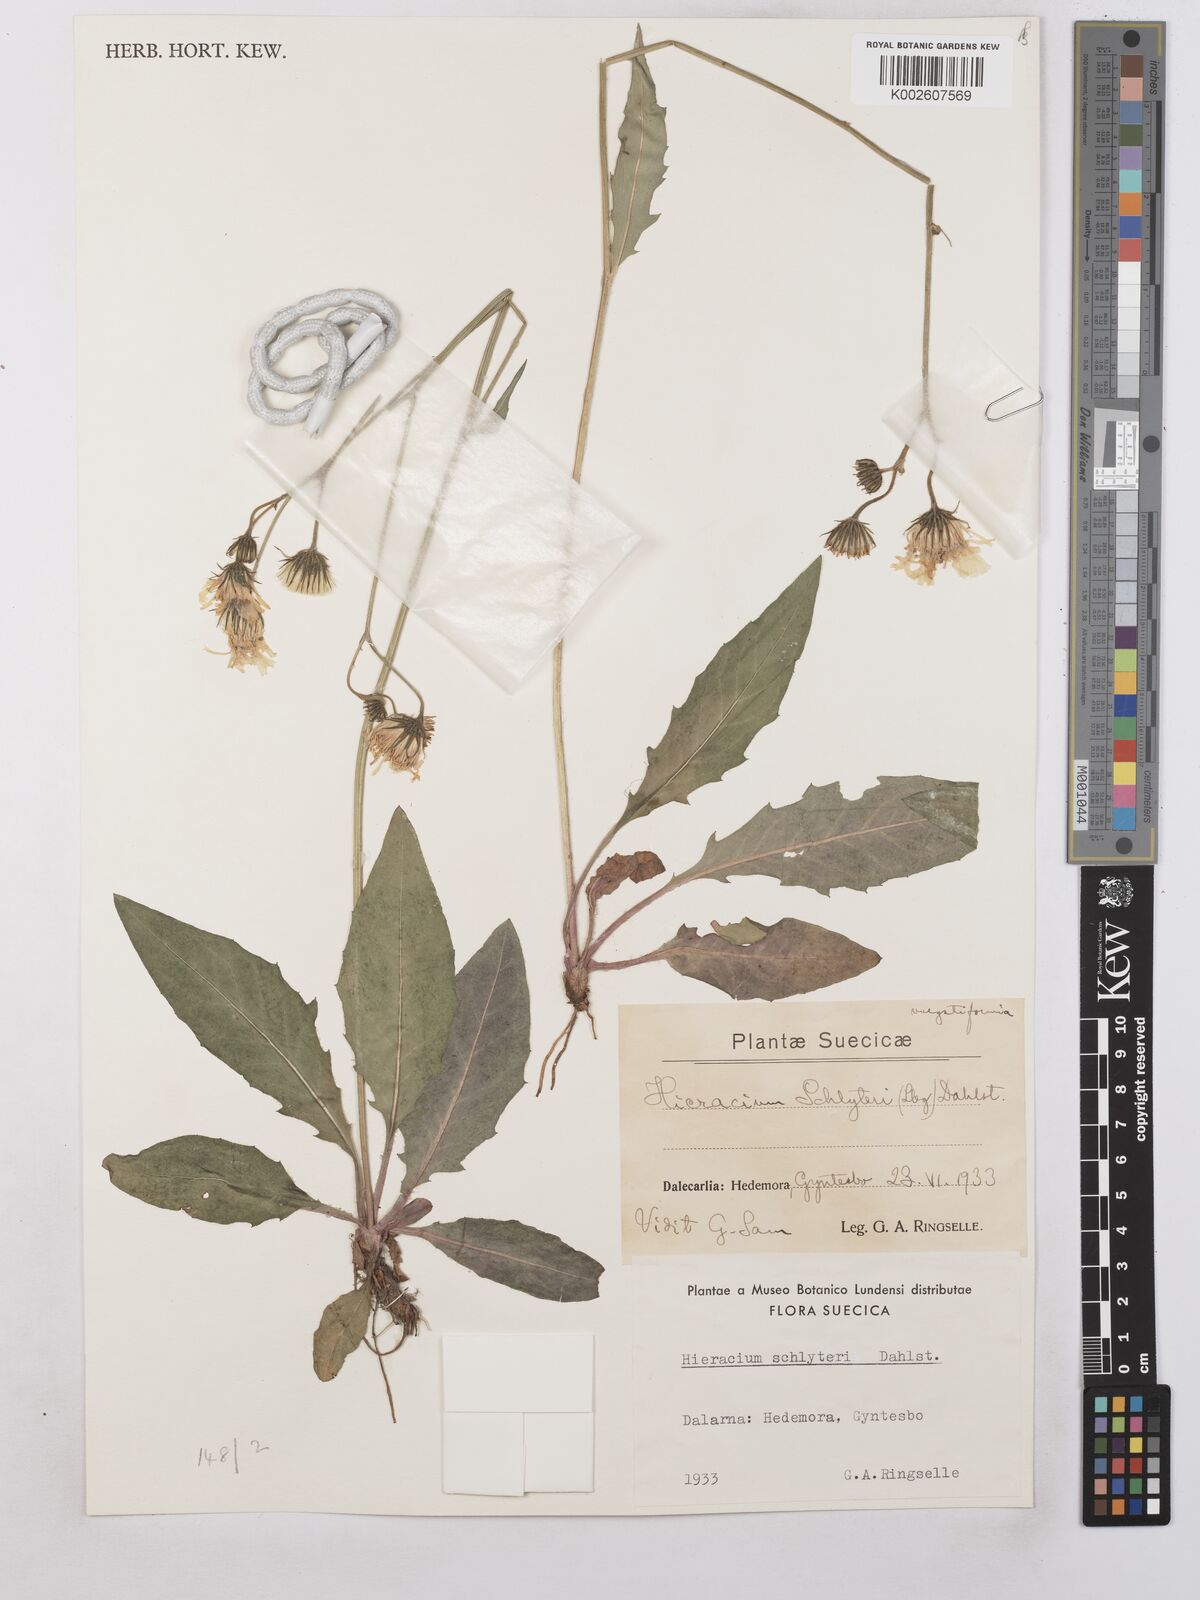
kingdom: Plantae
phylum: Tracheophyta
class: Magnoliopsida
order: Asterales
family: Asteraceae
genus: Hieracium
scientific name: Hieracium subramosum
